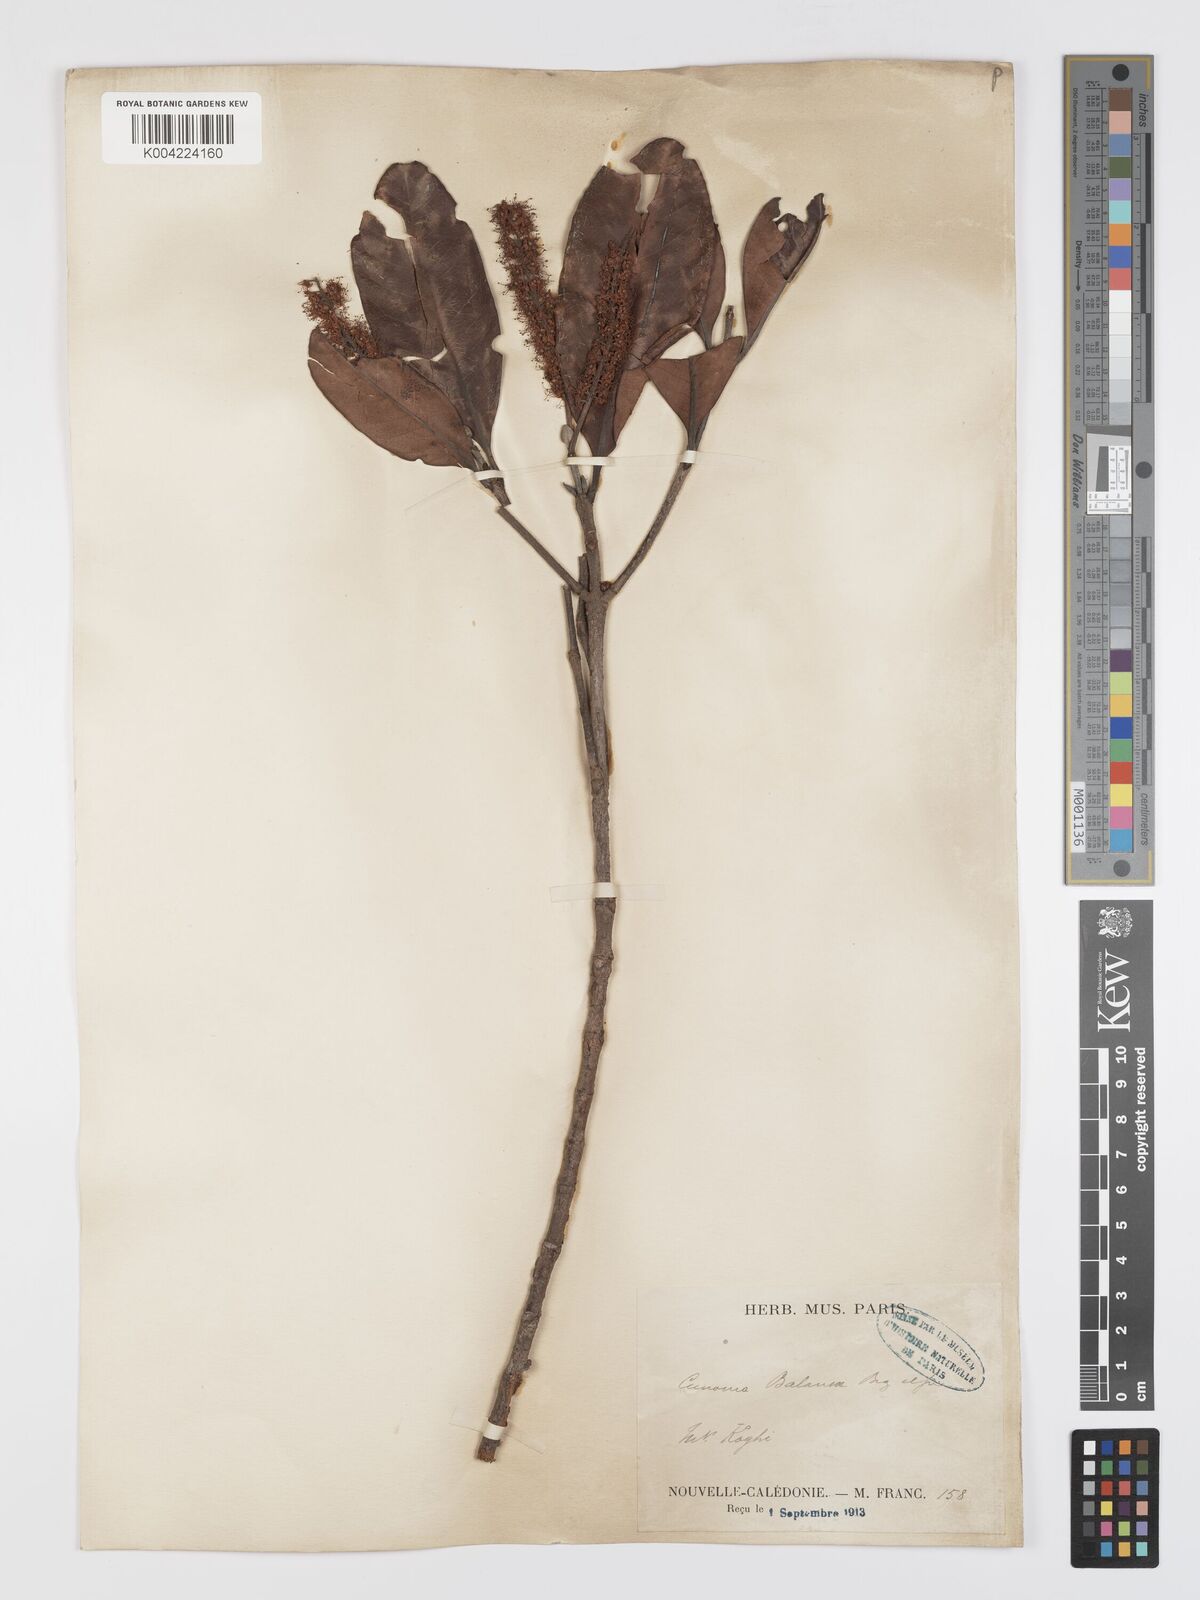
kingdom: Plantae
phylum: Tracheophyta
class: Magnoliopsida
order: Oxalidales
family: Cunoniaceae
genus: Cunonia
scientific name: Cunonia balansae
